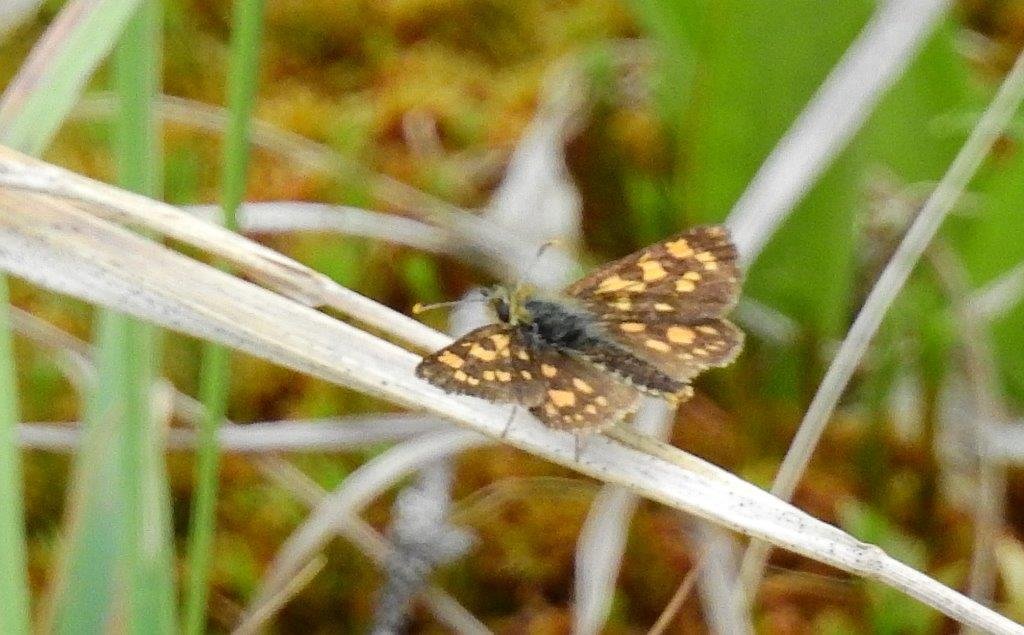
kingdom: Animalia
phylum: Arthropoda
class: Insecta
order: Lepidoptera
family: Hesperiidae
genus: Carterocephalus
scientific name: Carterocephalus palaemon
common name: Chequered Skipper
